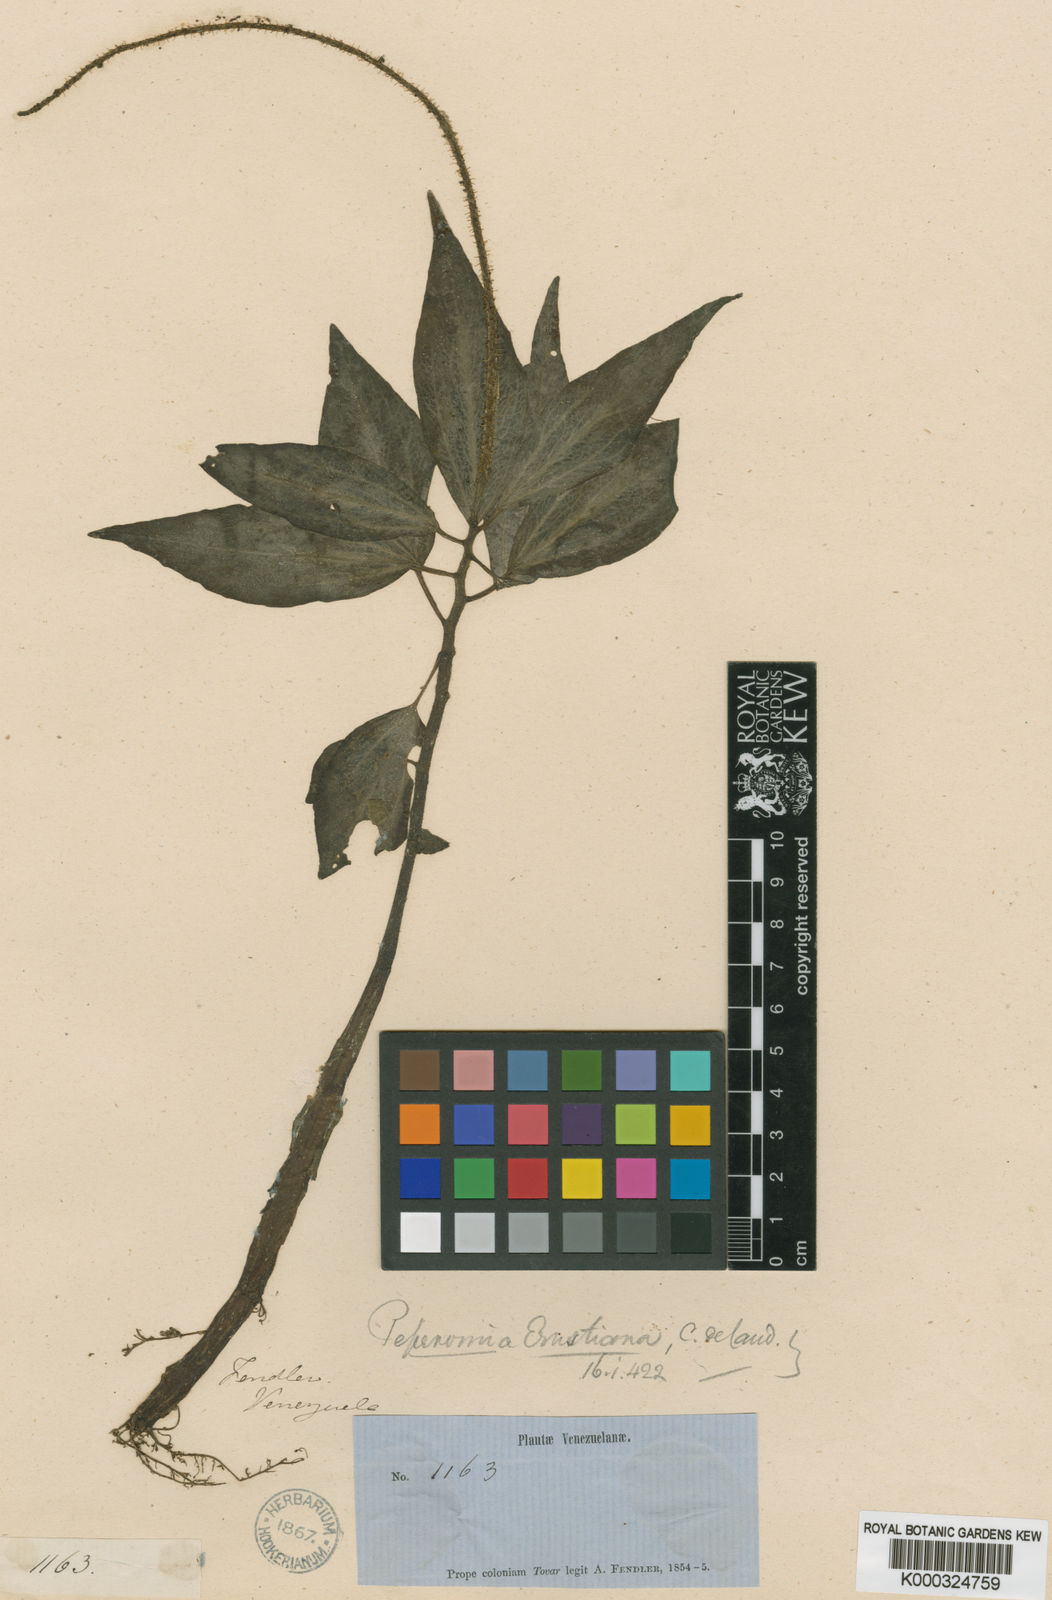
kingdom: Plantae
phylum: Tracheophyta
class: Magnoliopsida
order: Piperales
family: Piperaceae
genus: Peperomia
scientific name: Peperomia venezueliana
